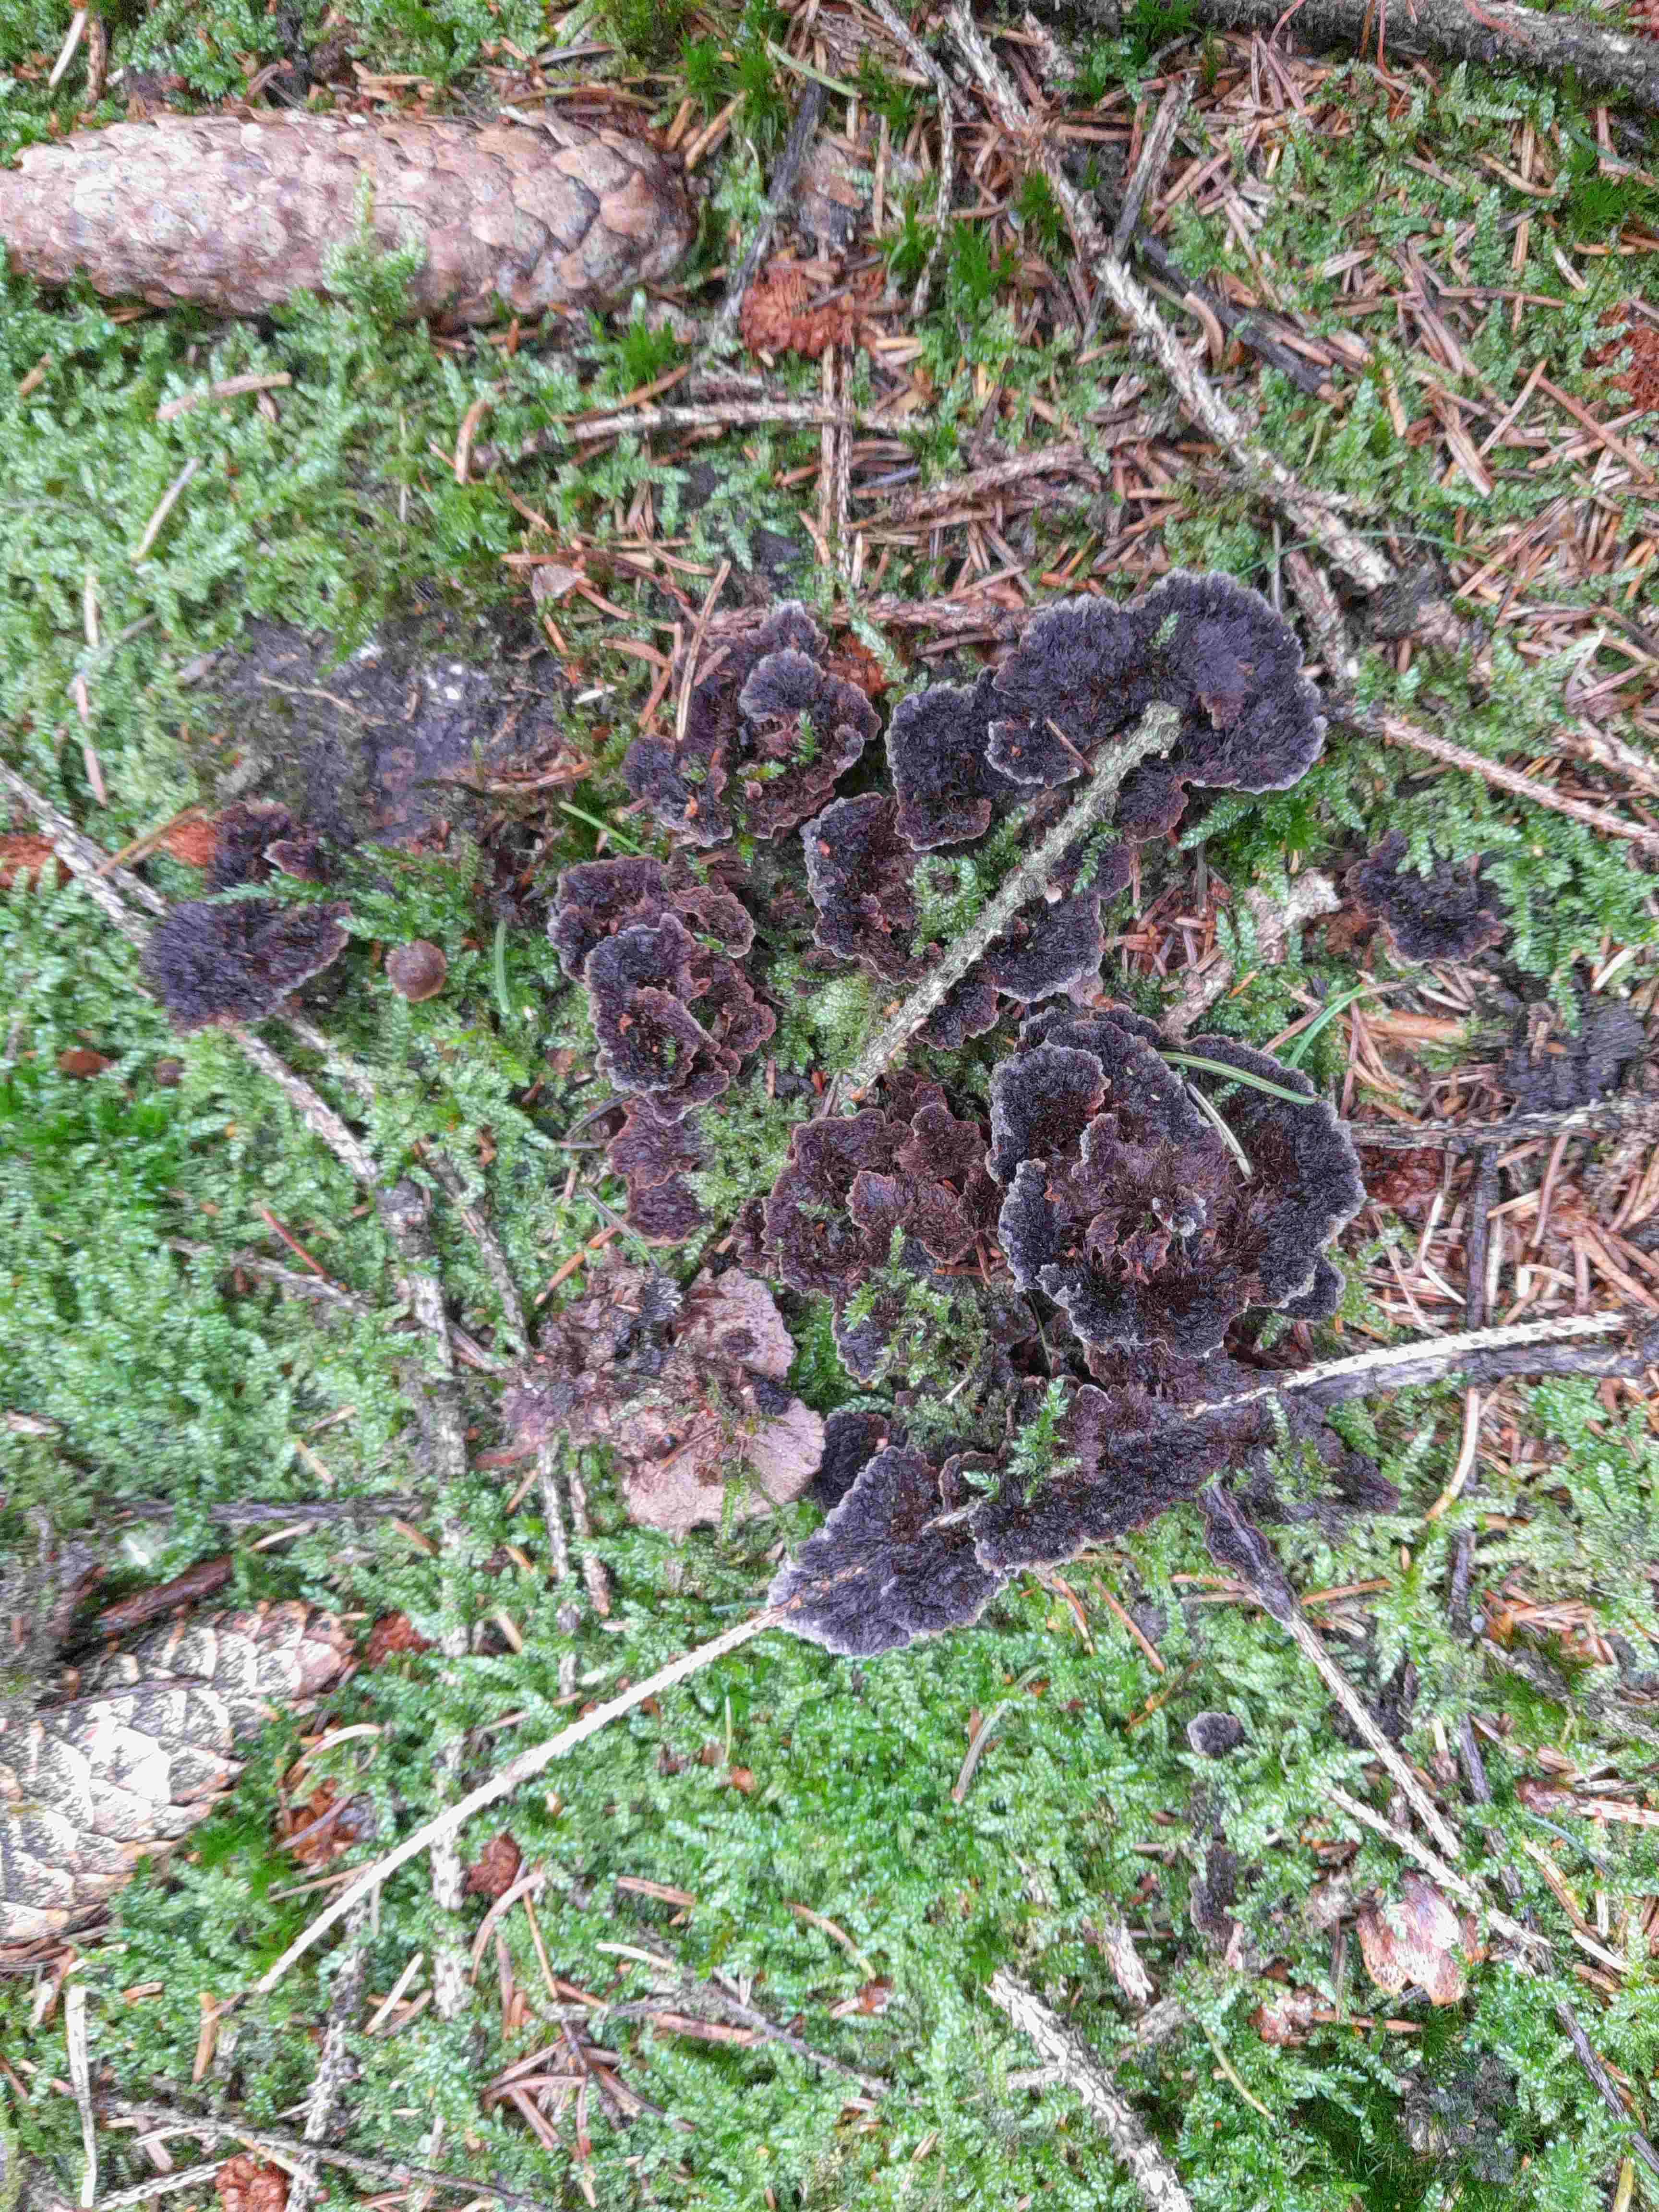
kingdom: Fungi
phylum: Basidiomycota
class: Agaricomycetes
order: Thelephorales
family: Thelephoraceae
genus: Thelephora
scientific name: Thelephora terrestris
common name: fliget frynsesvamp
